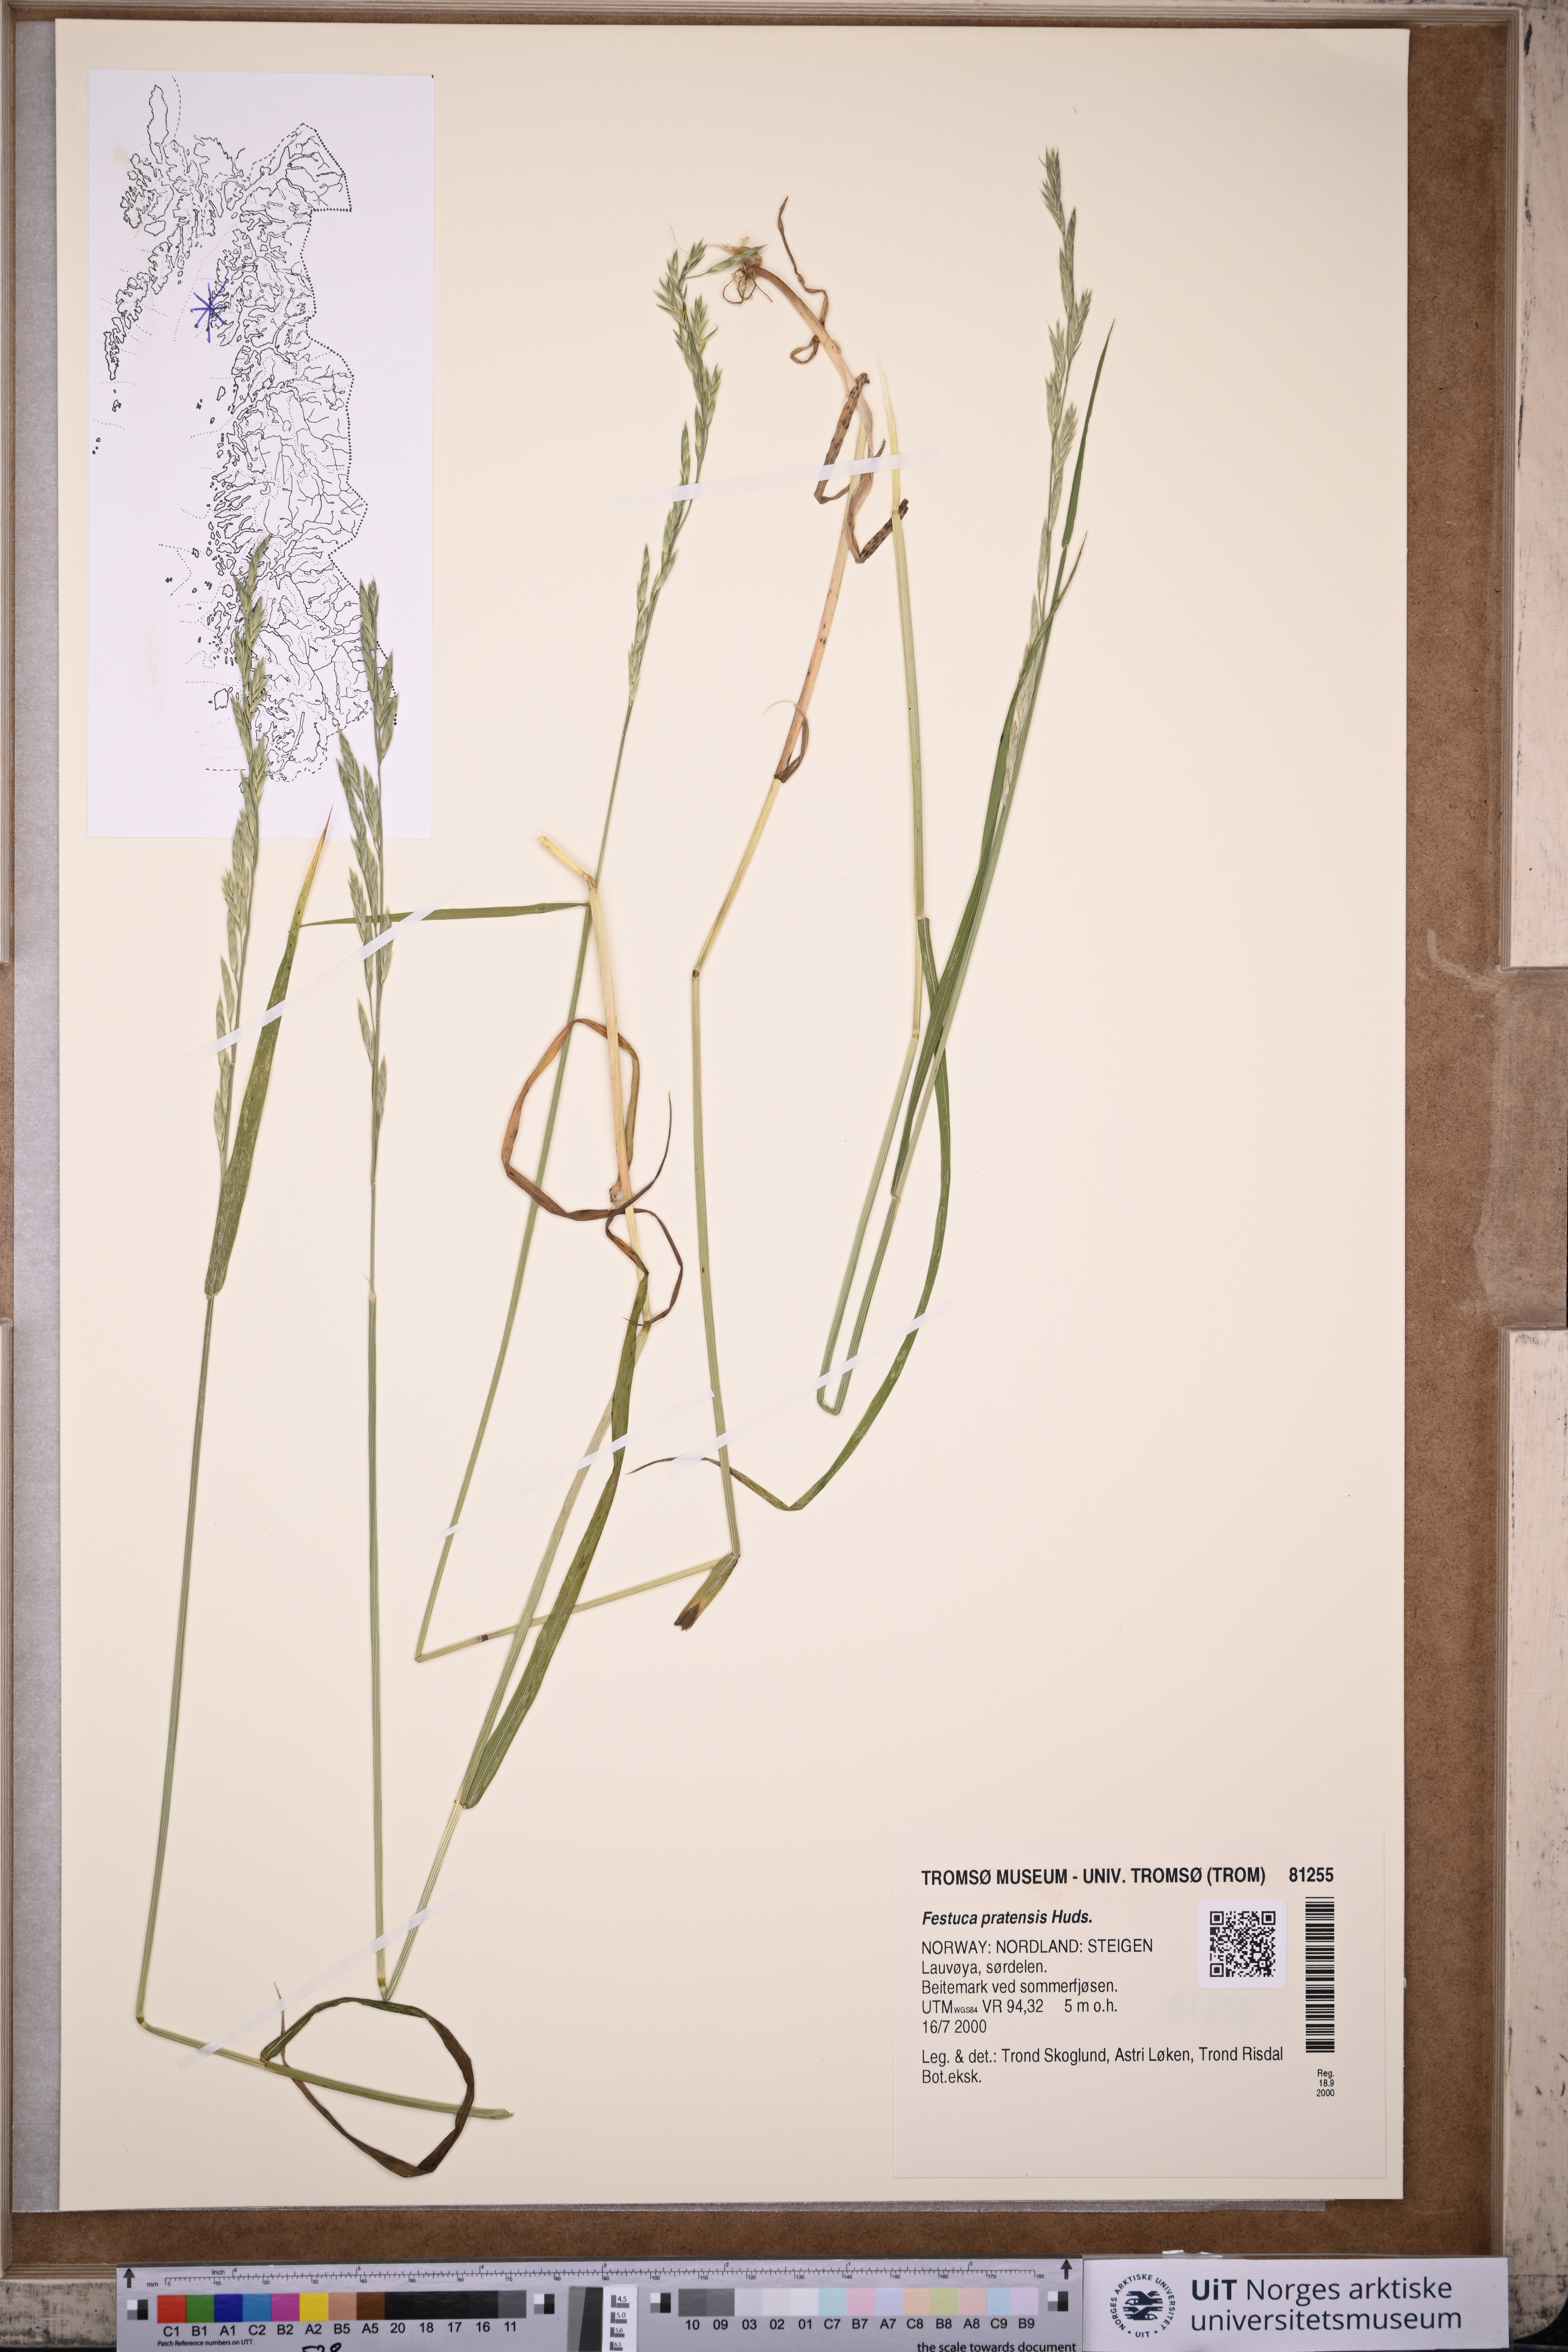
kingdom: Plantae
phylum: Tracheophyta
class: Liliopsida
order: Poales
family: Poaceae
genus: Lolium
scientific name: Lolium pratense
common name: Dover grass
